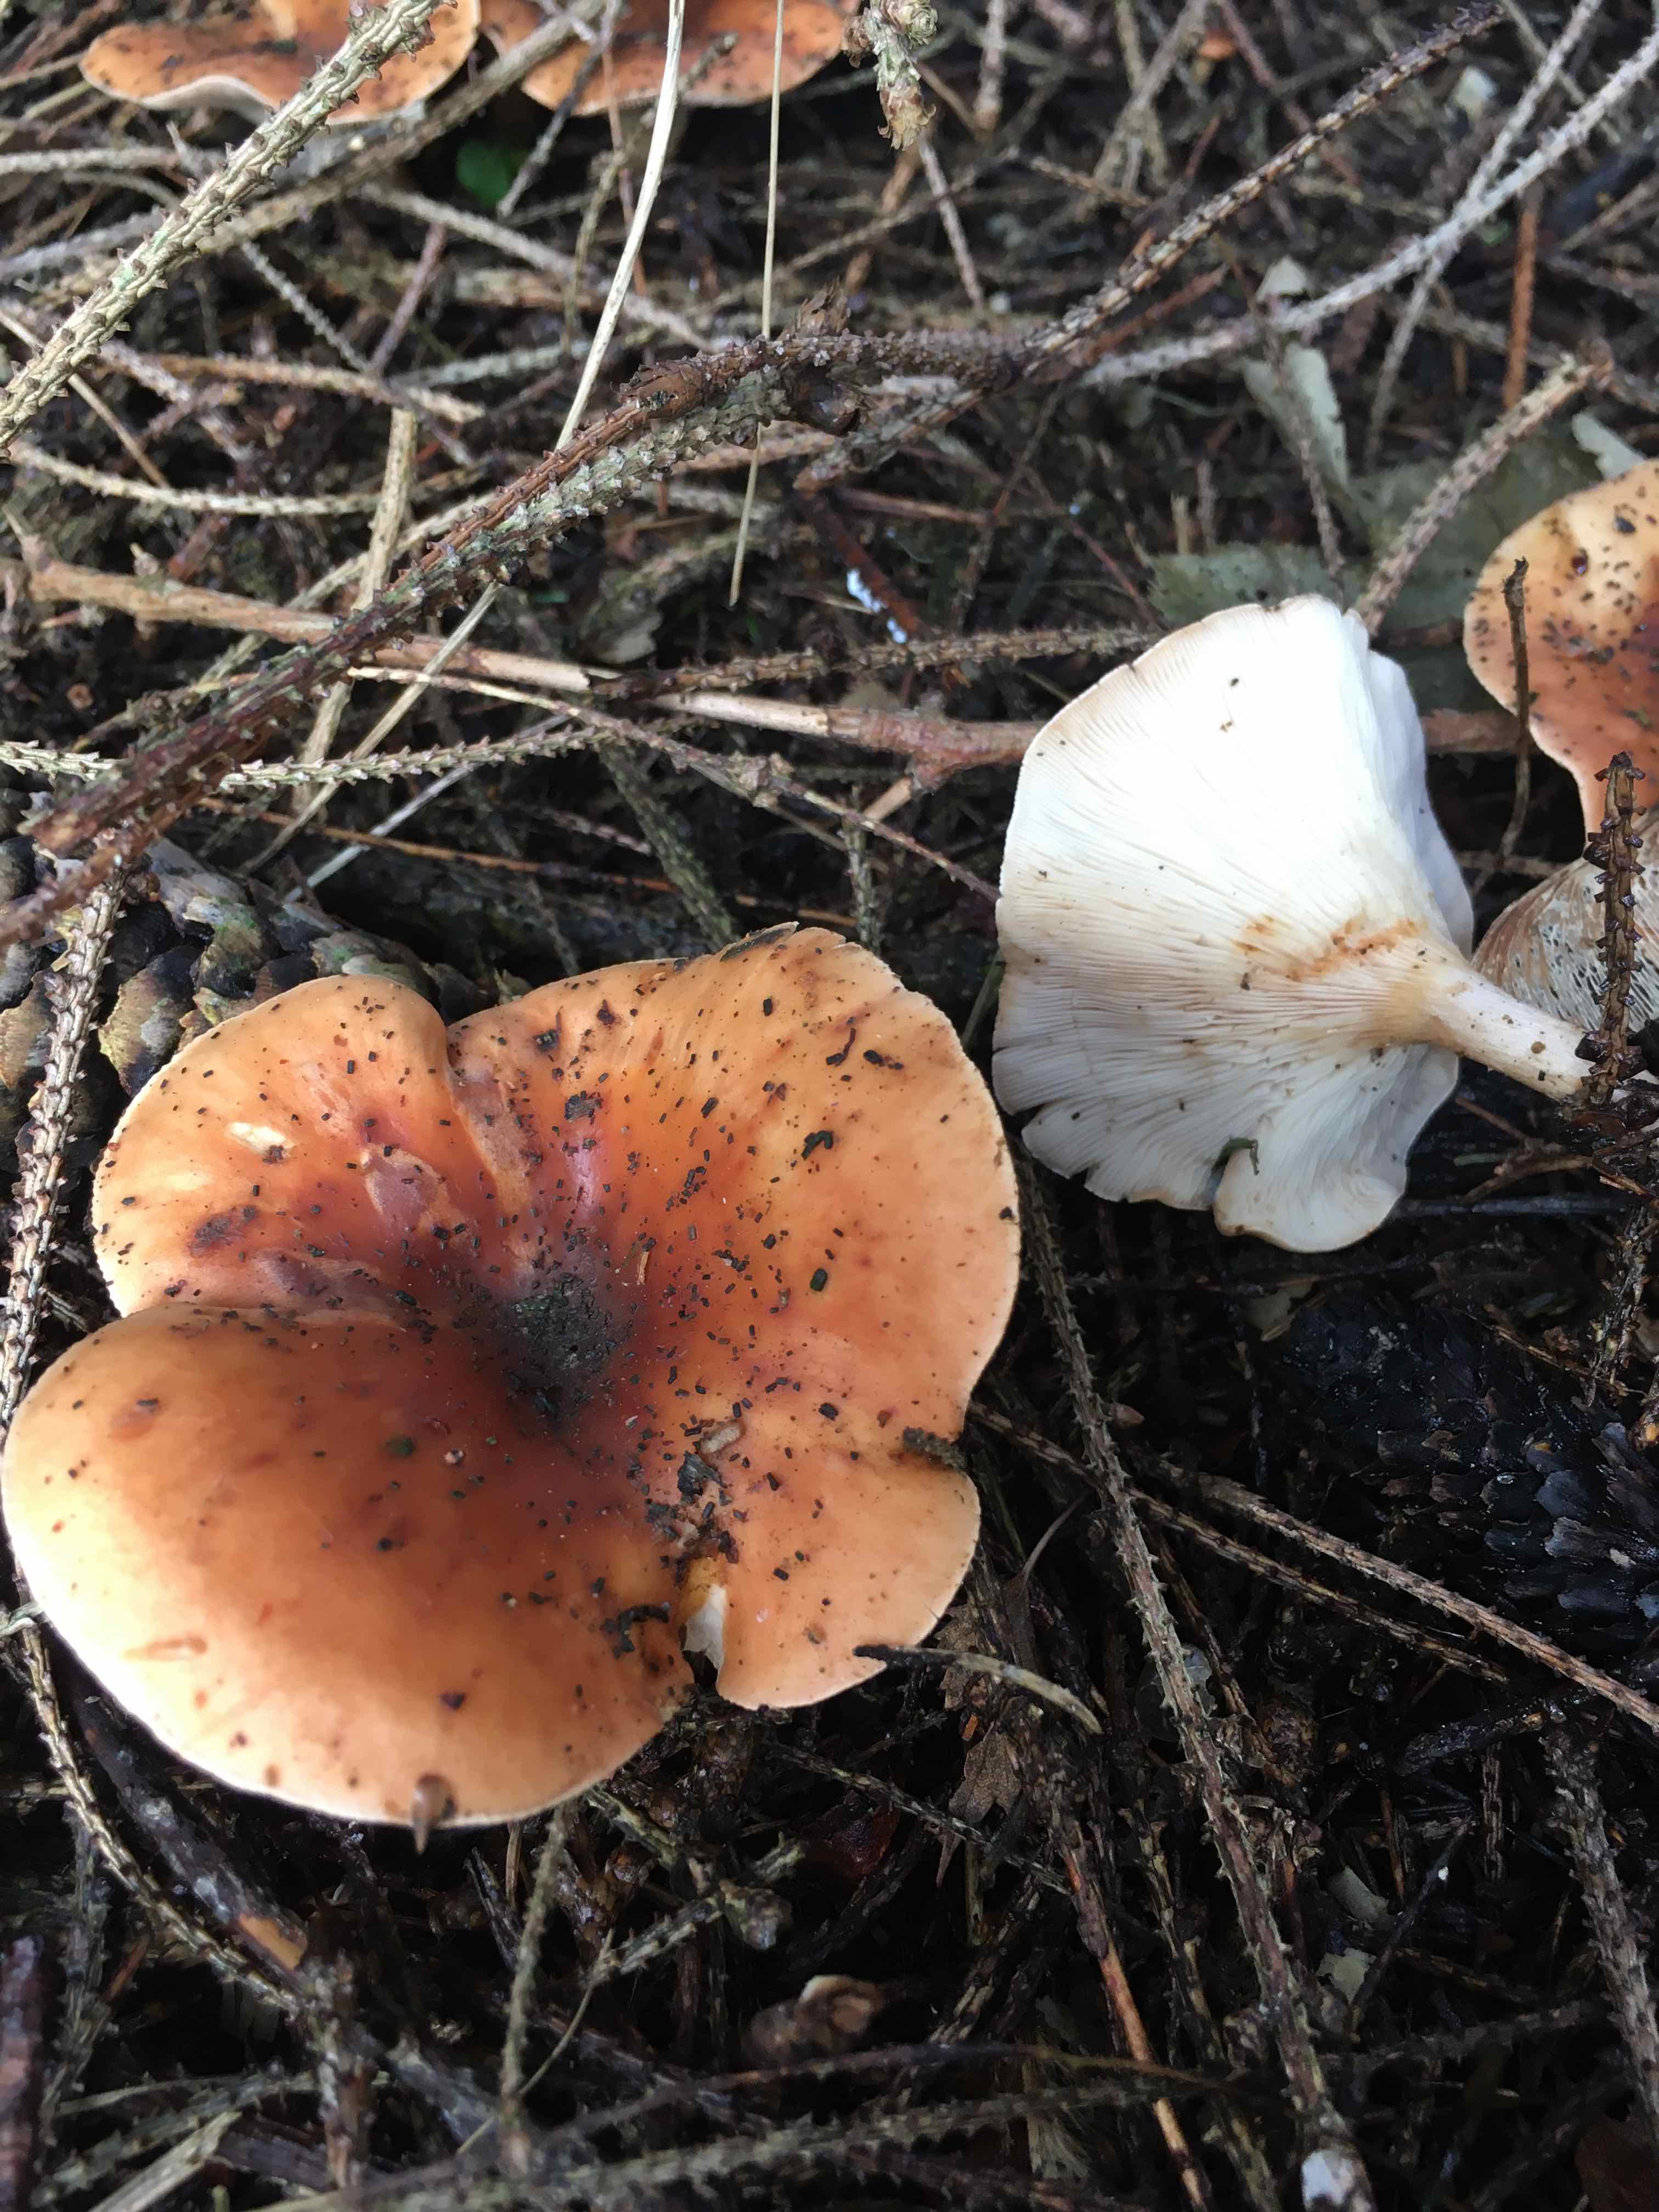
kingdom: Fungi
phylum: Basidiomycota
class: Agaricomycetes
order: Agaricales
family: Tricholomataceae
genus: Paralepista
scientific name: Paralepista flaccida
